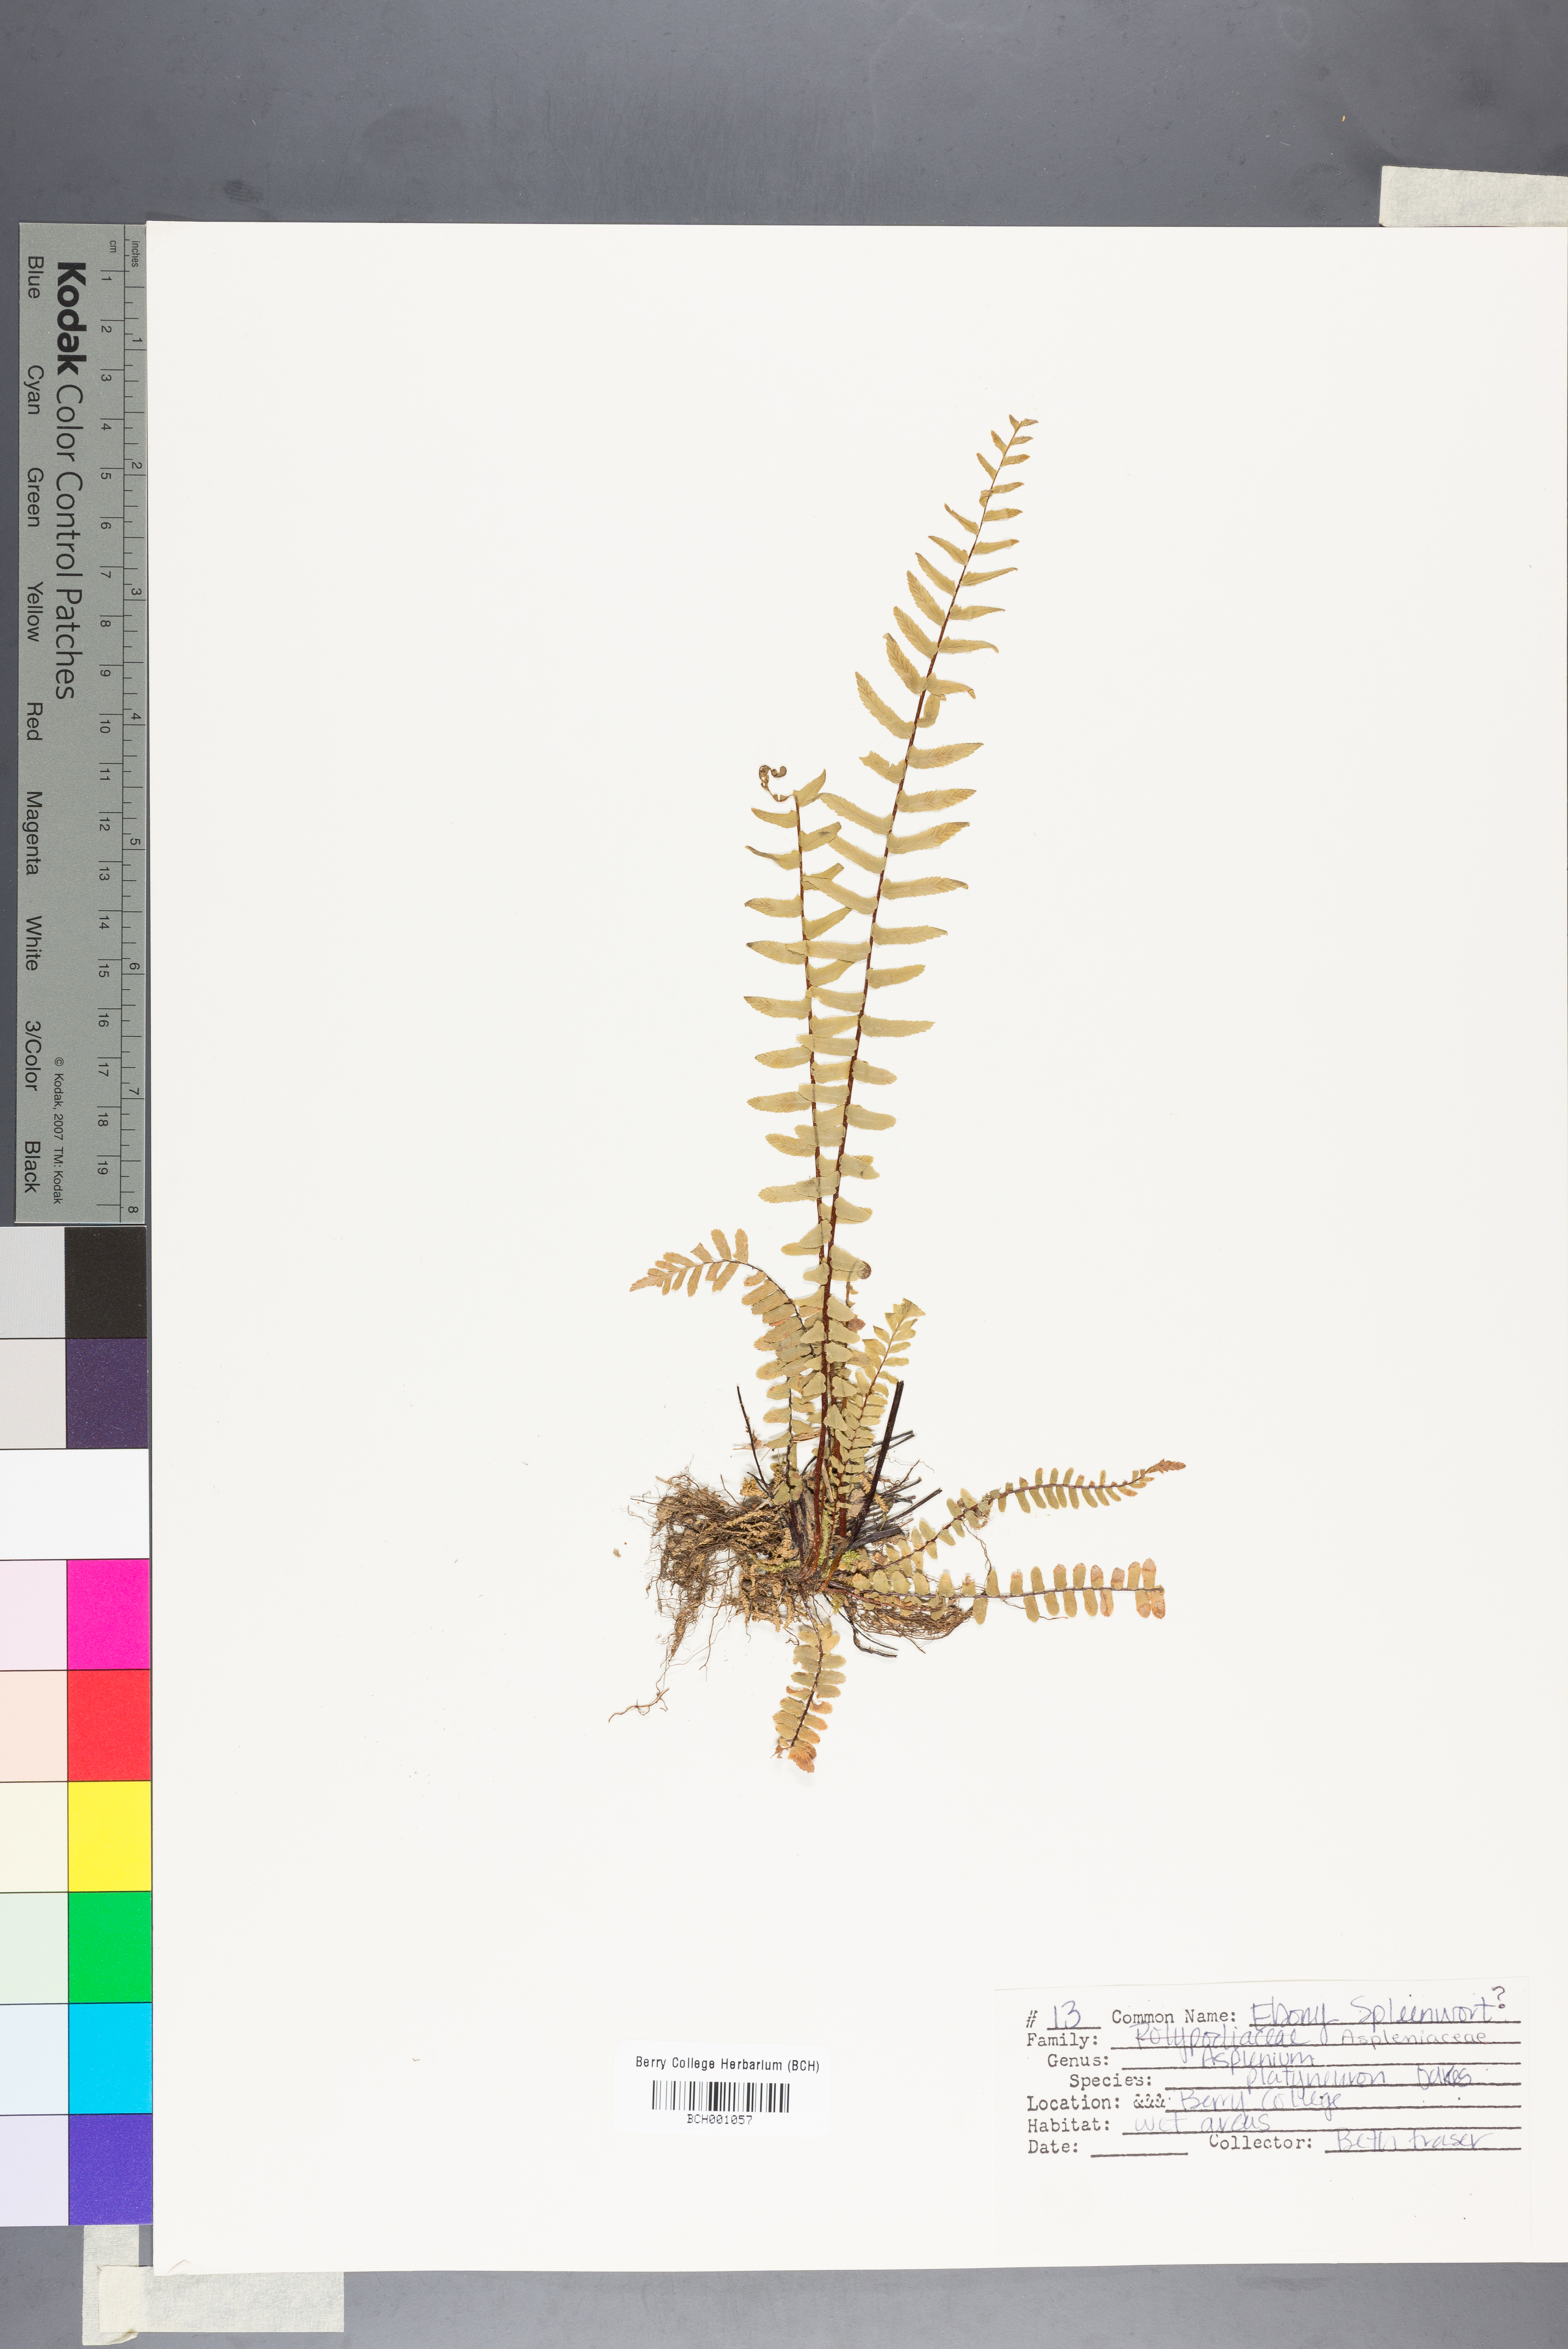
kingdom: Plantae
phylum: Tracheophyta
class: Polypodiopsida
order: Polypodiales
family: Aspleniaceae
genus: Asplenium
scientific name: Asplenium platyneuron
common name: Ebony spleenwort
